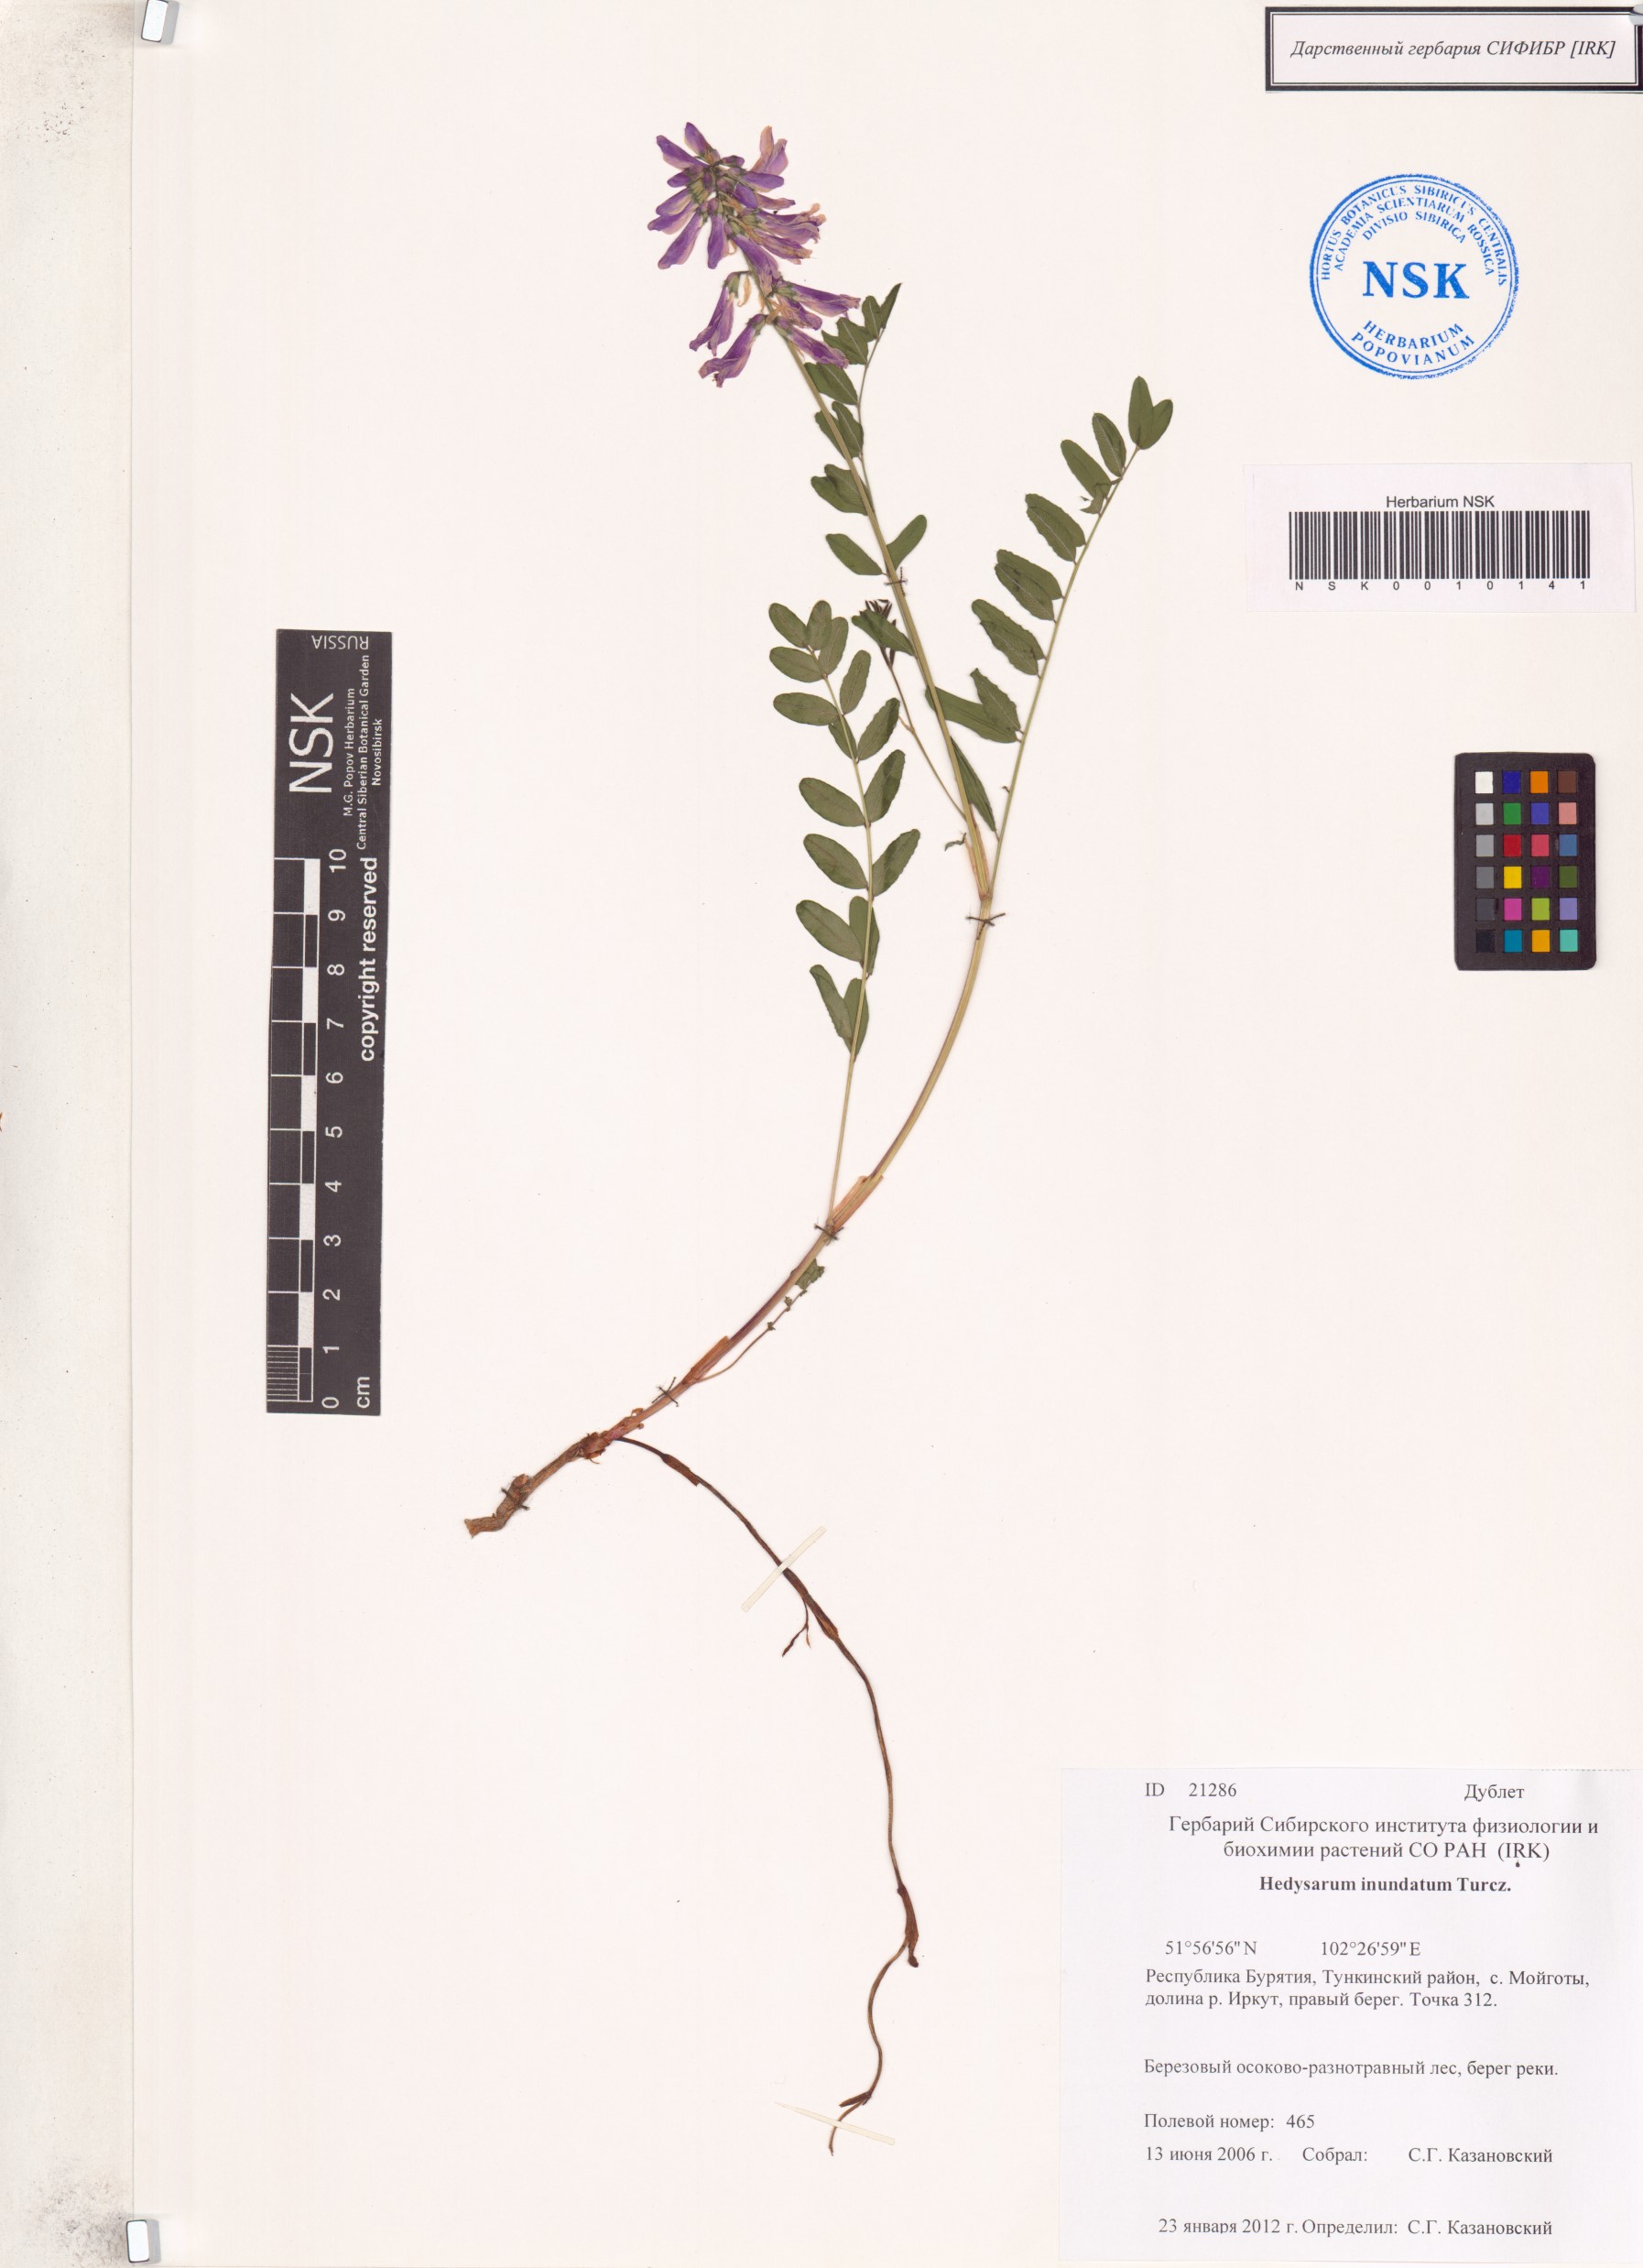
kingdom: Plantae
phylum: Tracheophyta
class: Magnoliopsida
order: Fabales
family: Fabaceae
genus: Hedysarum
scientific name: Hedysarum inundatum
